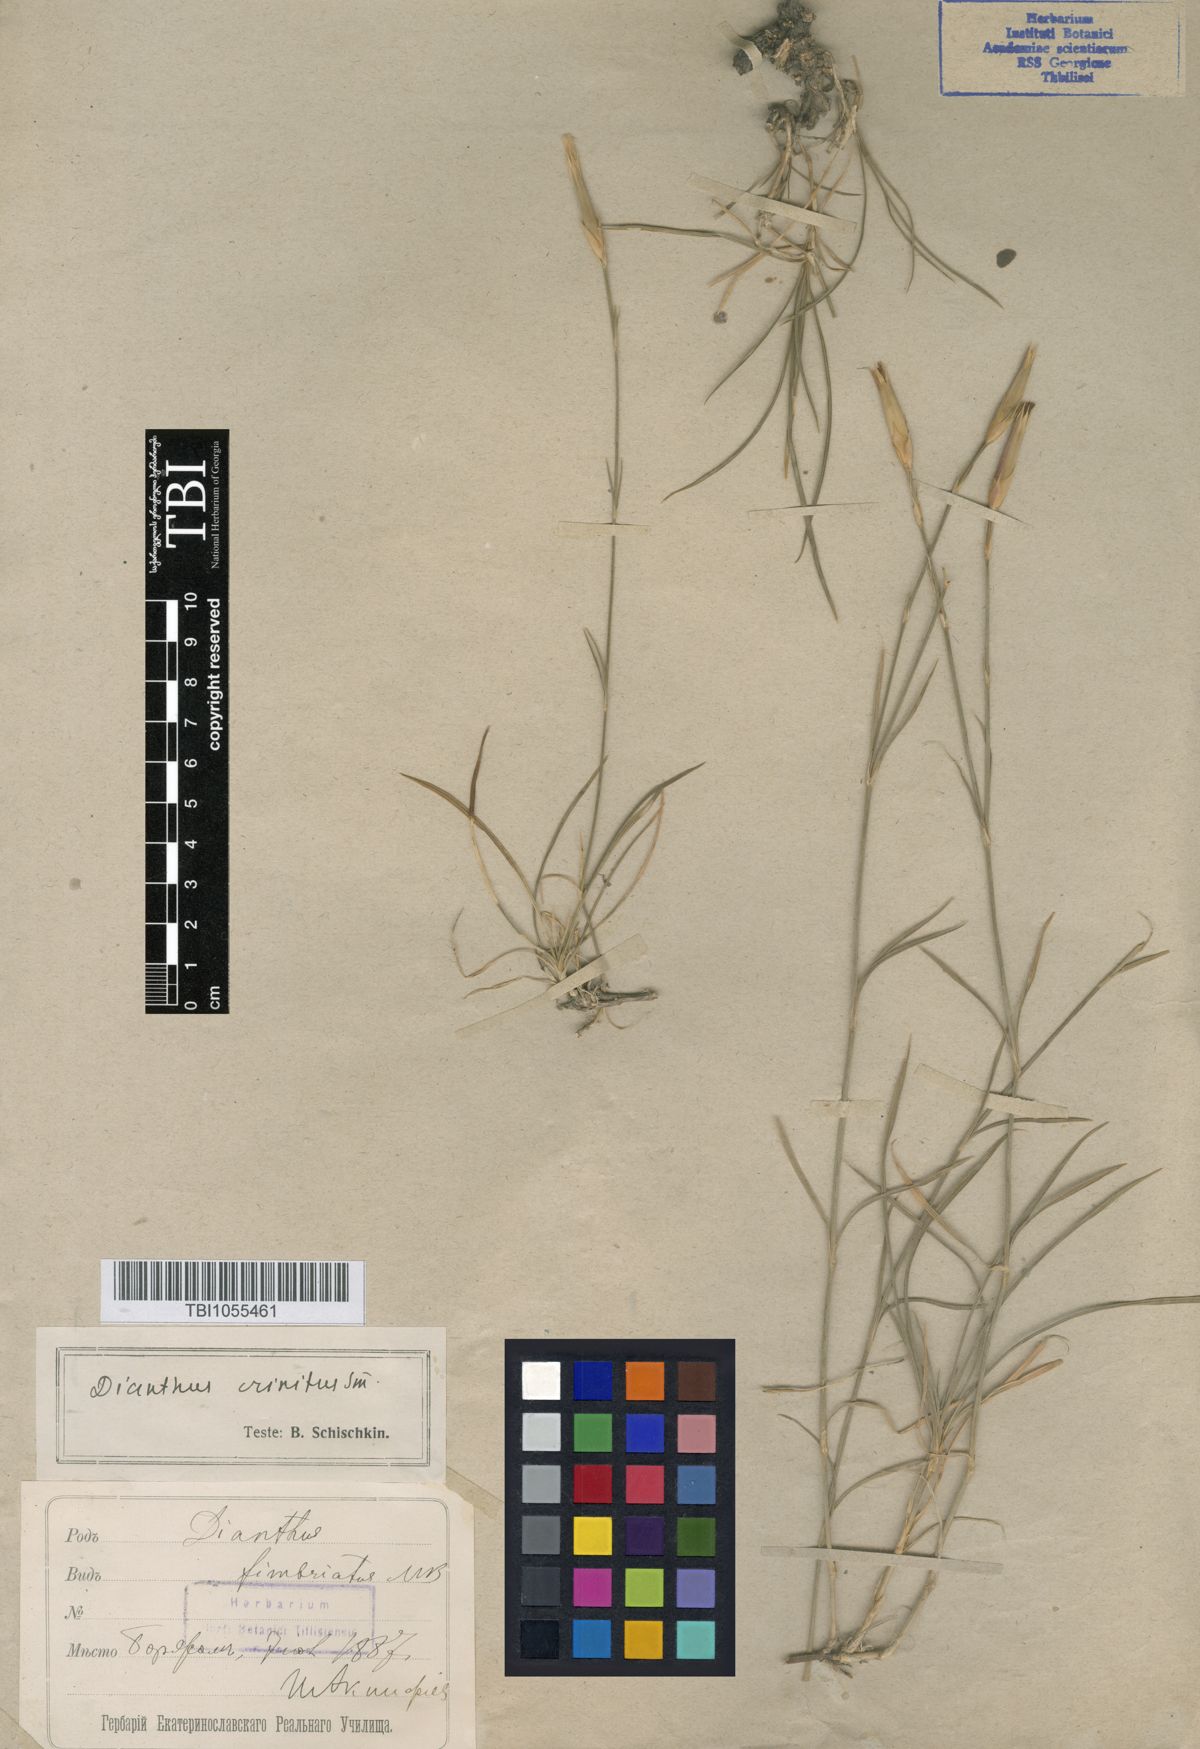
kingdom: Plantae
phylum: Tracheophyta
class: Magnoliopsida
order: Caryophyllales
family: Caryophyllaceae
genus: Dianthus
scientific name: Dianthus crinitus
